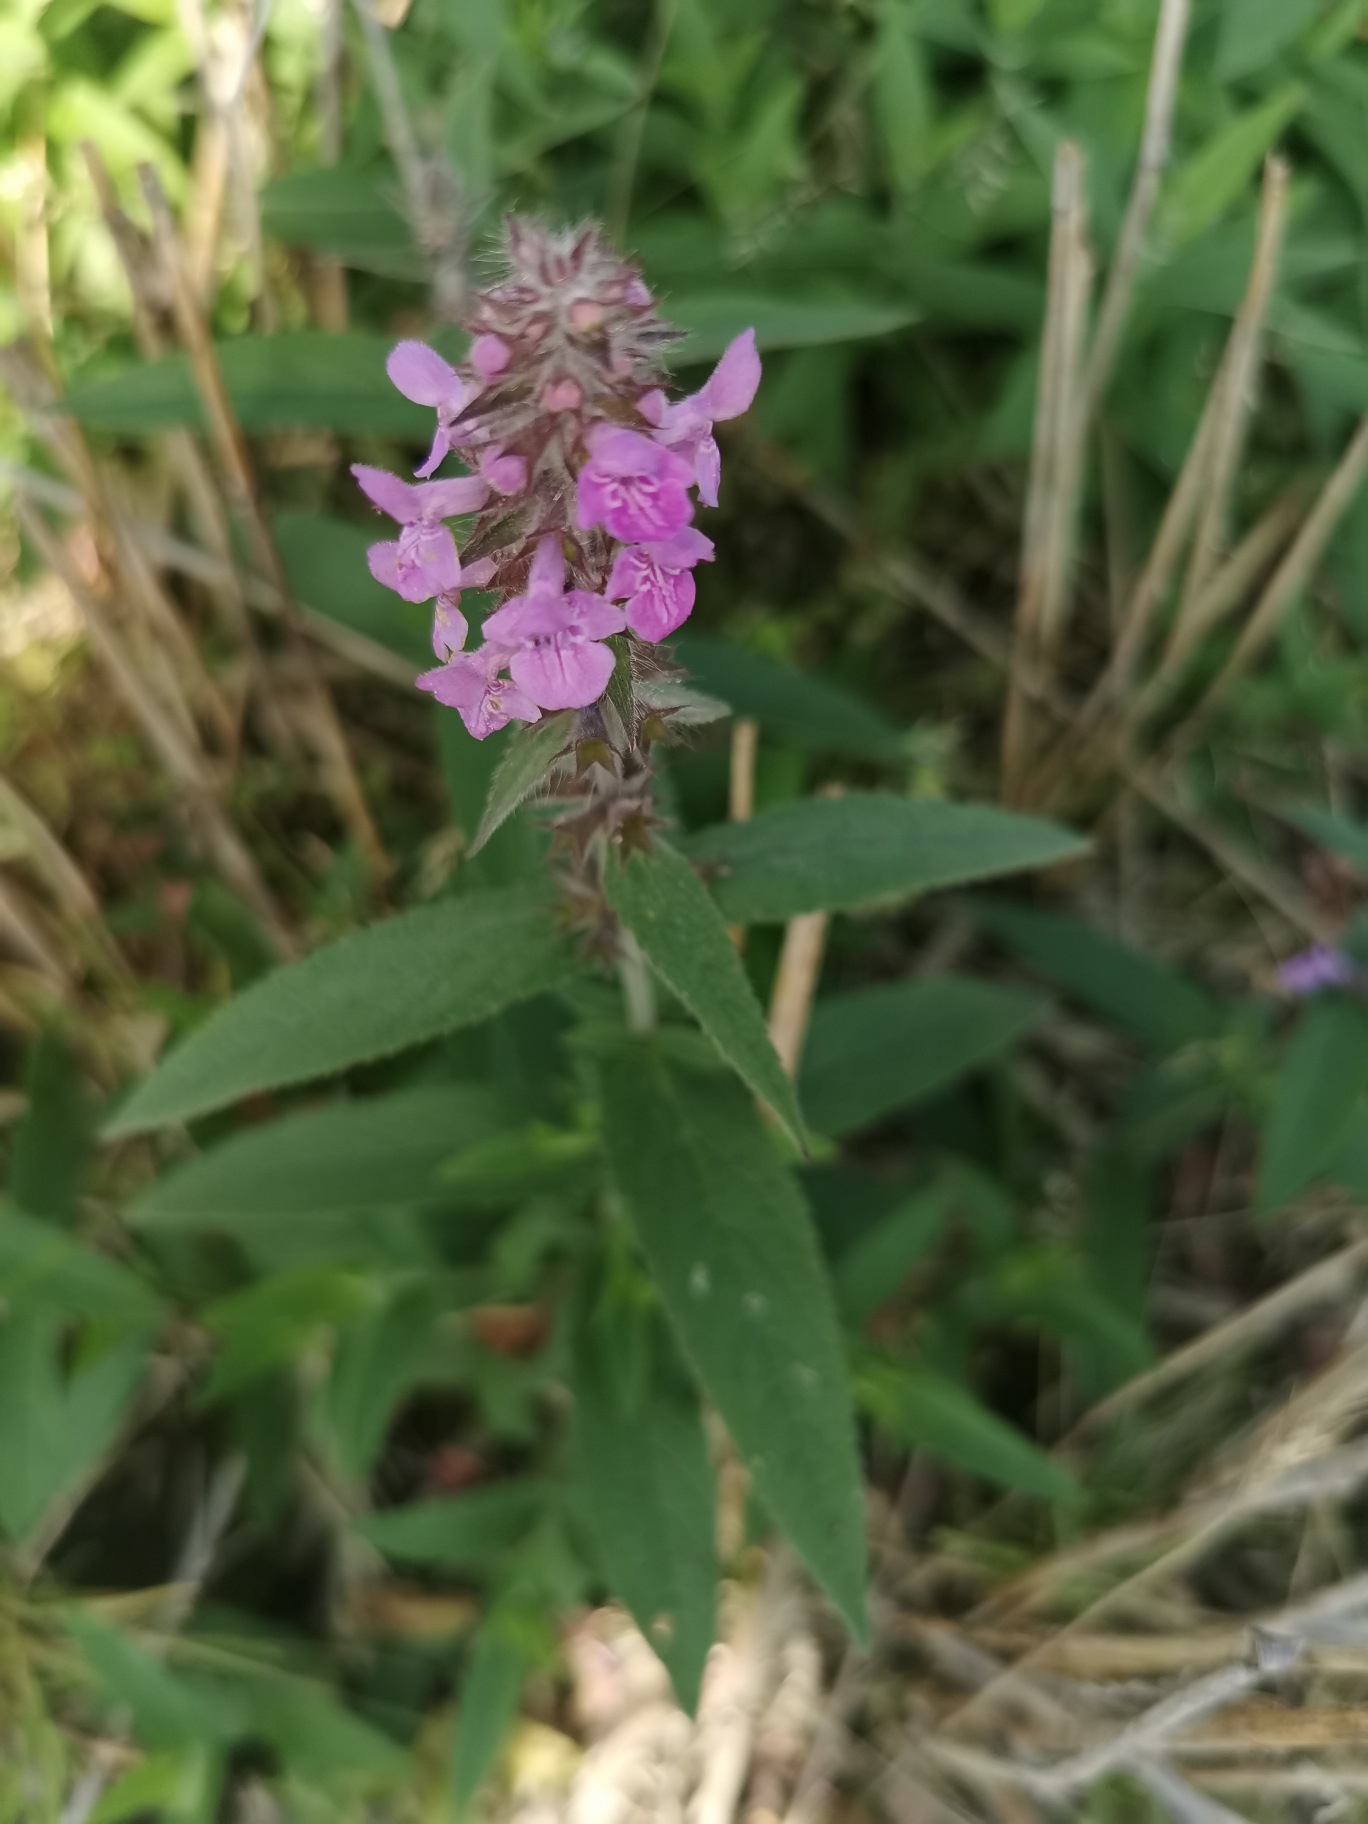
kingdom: Plantae
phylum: Tracheophyta
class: Magnoliopsida
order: Lamiales
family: Lamiaceae
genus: Stachys
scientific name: Stachys palustris
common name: Kær-galtetand
